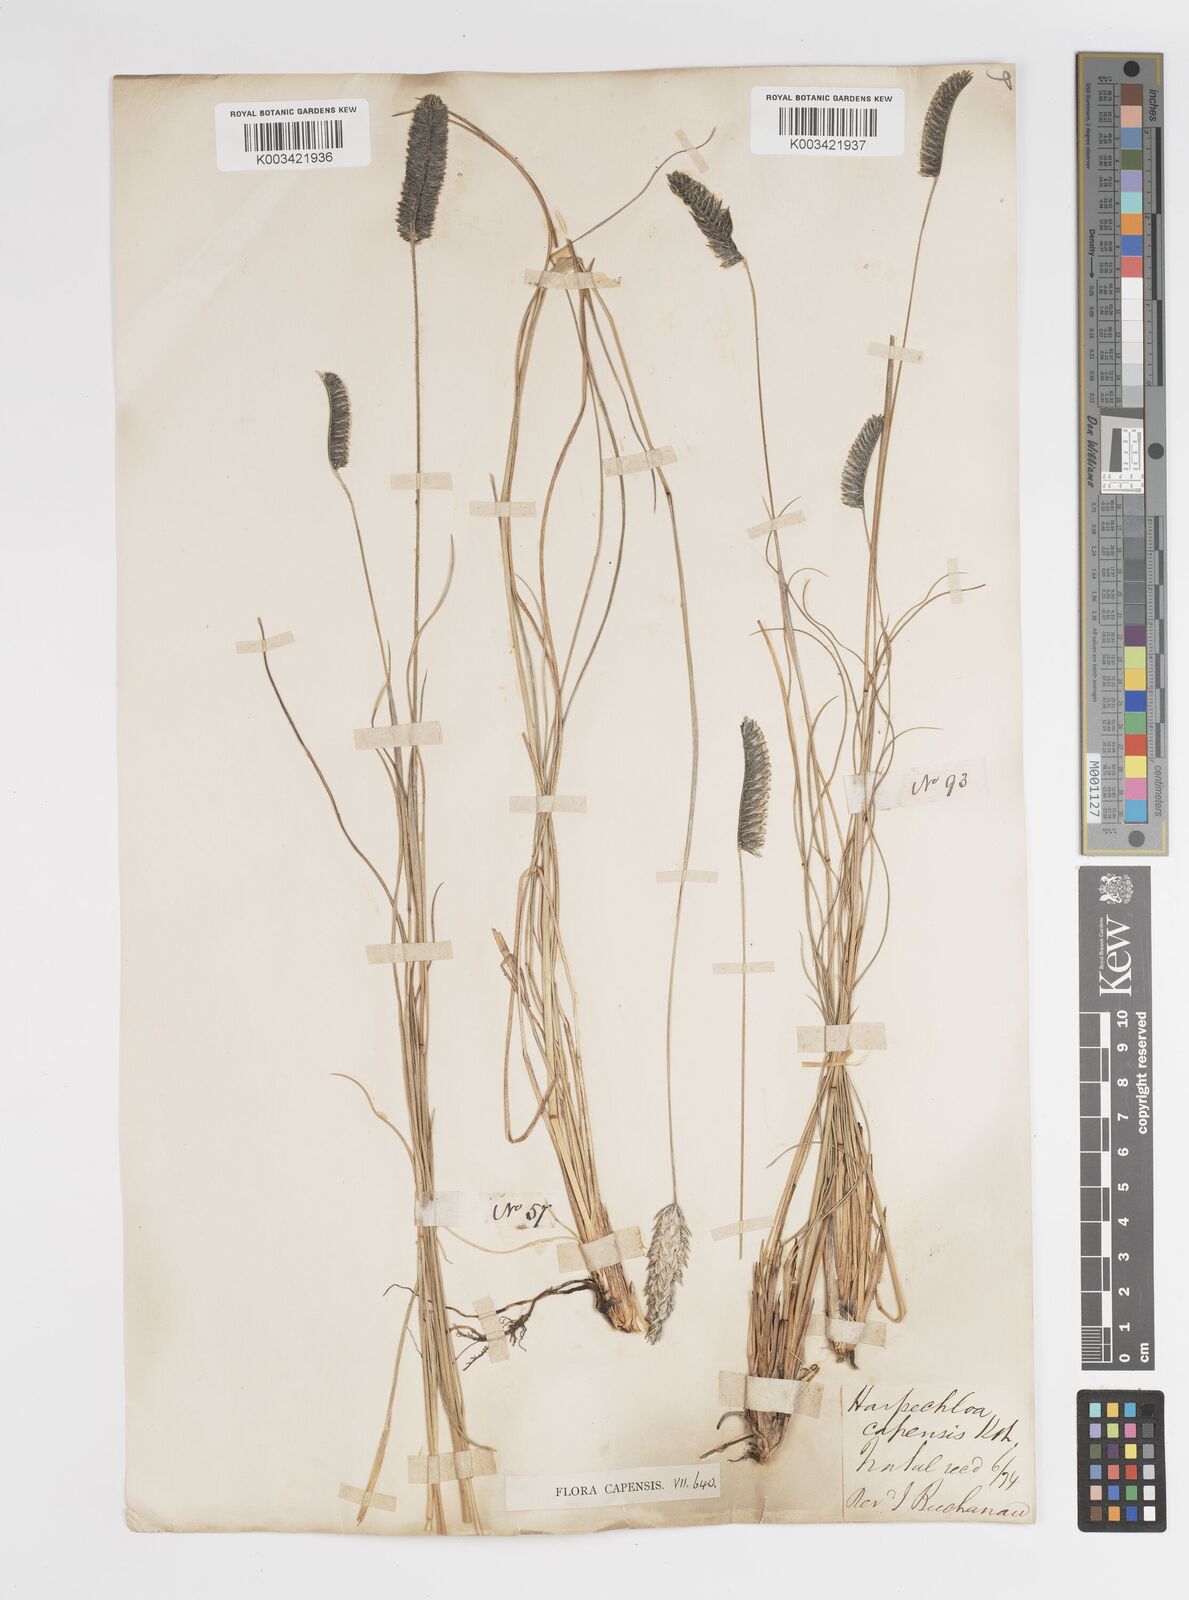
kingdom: Plantae
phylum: Tracheophyta
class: Liliopsida
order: Poales
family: Poaceae
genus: Harpochloa
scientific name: Harpochloa falx
